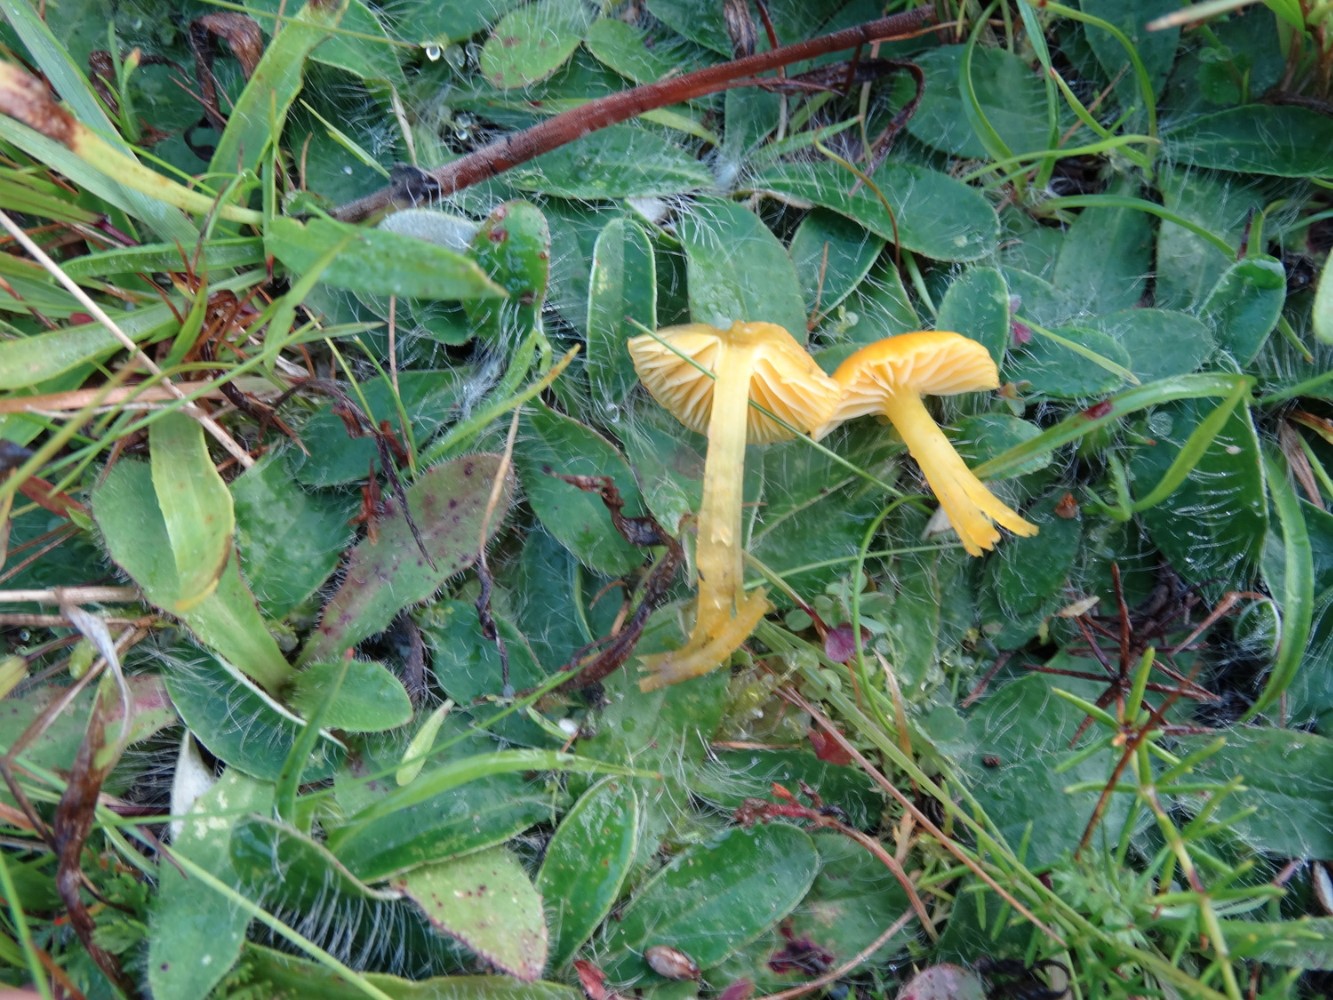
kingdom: Fungi
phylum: Basidiomycota
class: Agaricomycetes
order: Agaricales
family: Hygrophoraceae
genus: Hygrocybe
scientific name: Hygrocybe ceracea
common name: voksgul vokshat
